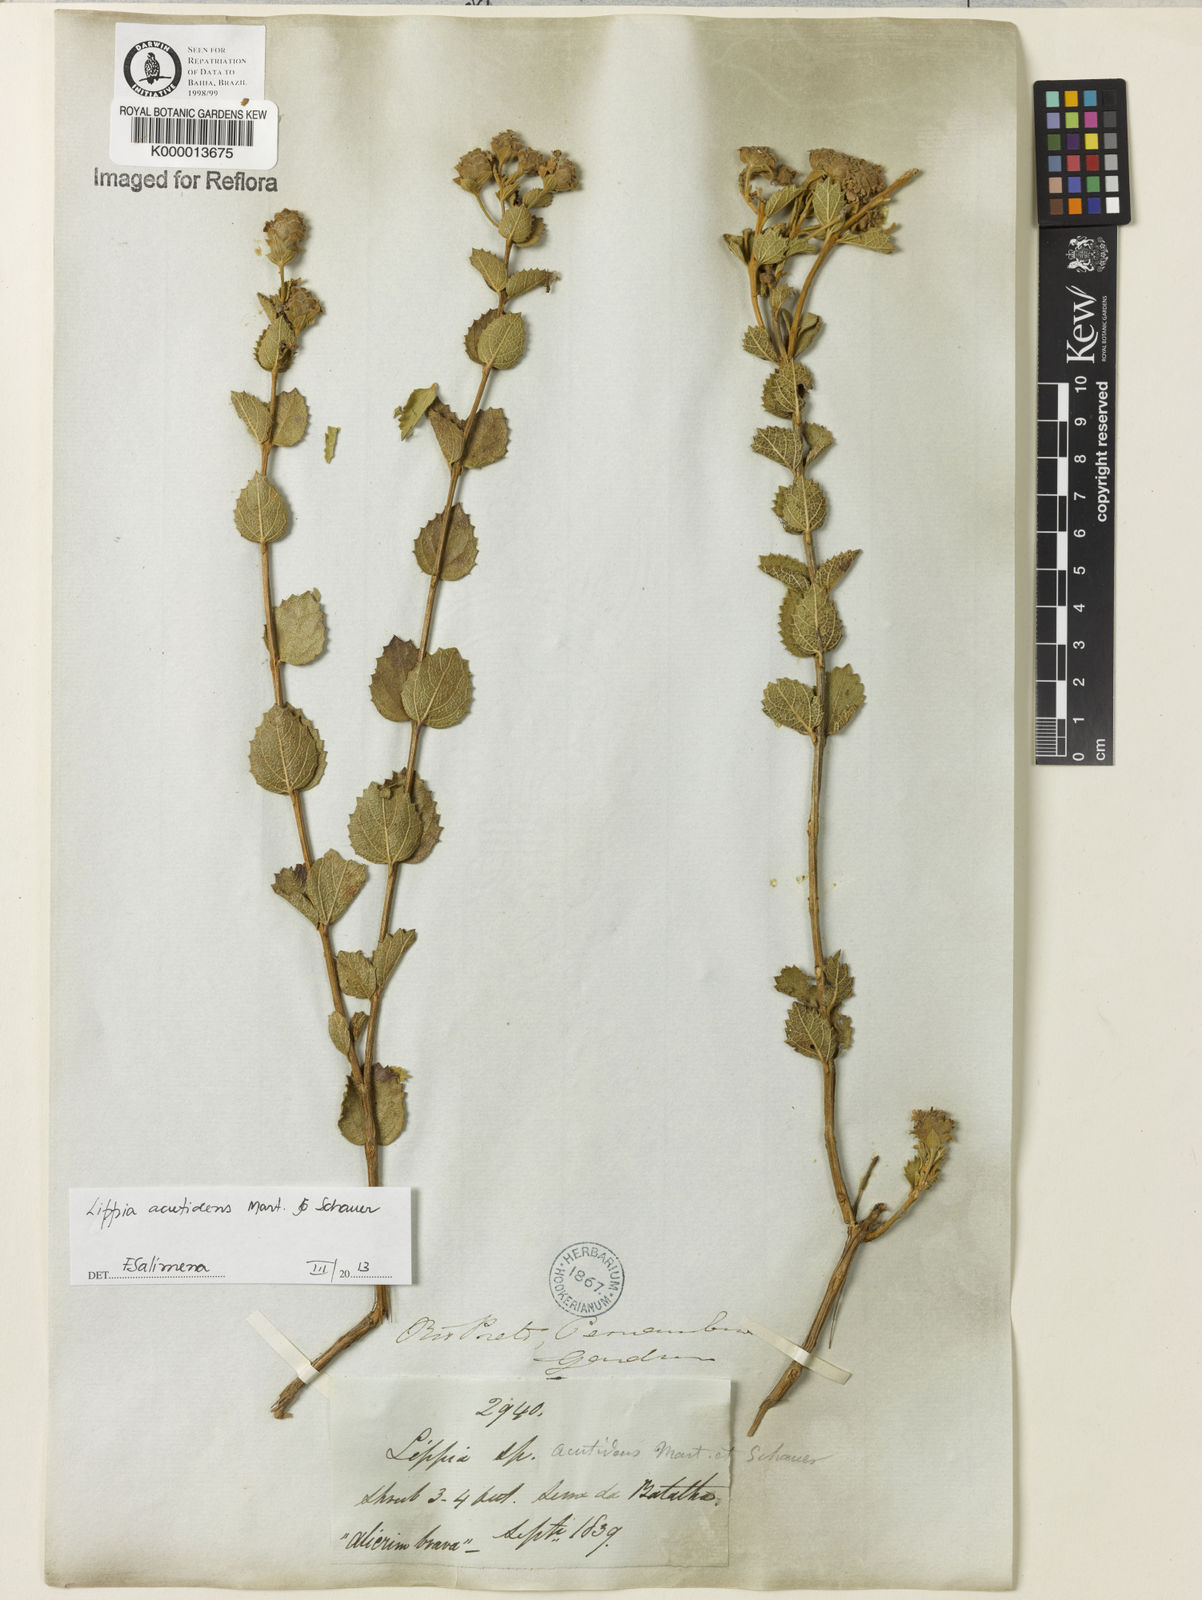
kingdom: Plantae
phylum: Tracheophyta
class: Magnoliopsida
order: Lamiales
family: Verbenaceae
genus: Lippia
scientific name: Lippia acutidens
